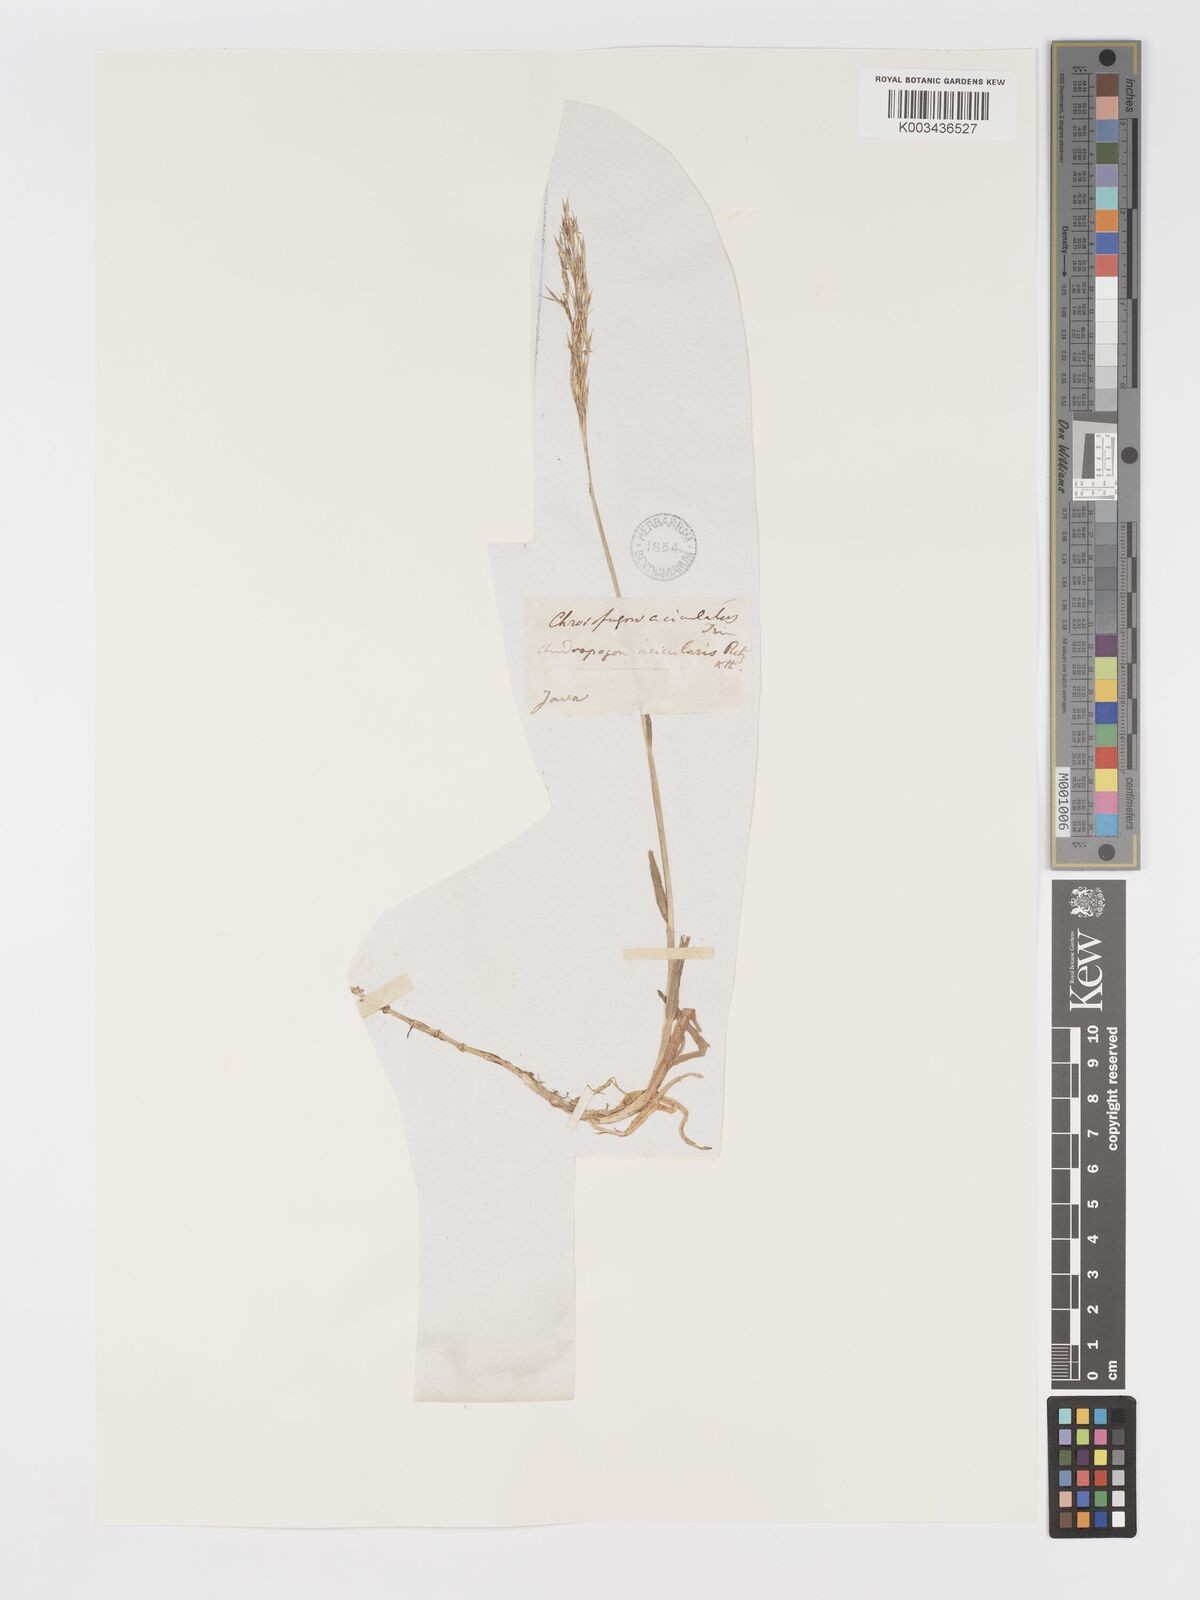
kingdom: Plantae
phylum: Tracheophyta
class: Liliopsida
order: Poales
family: Poaceae
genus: Chrysopogon
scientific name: Chrysopogon aciculatus
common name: Pilipiliula
